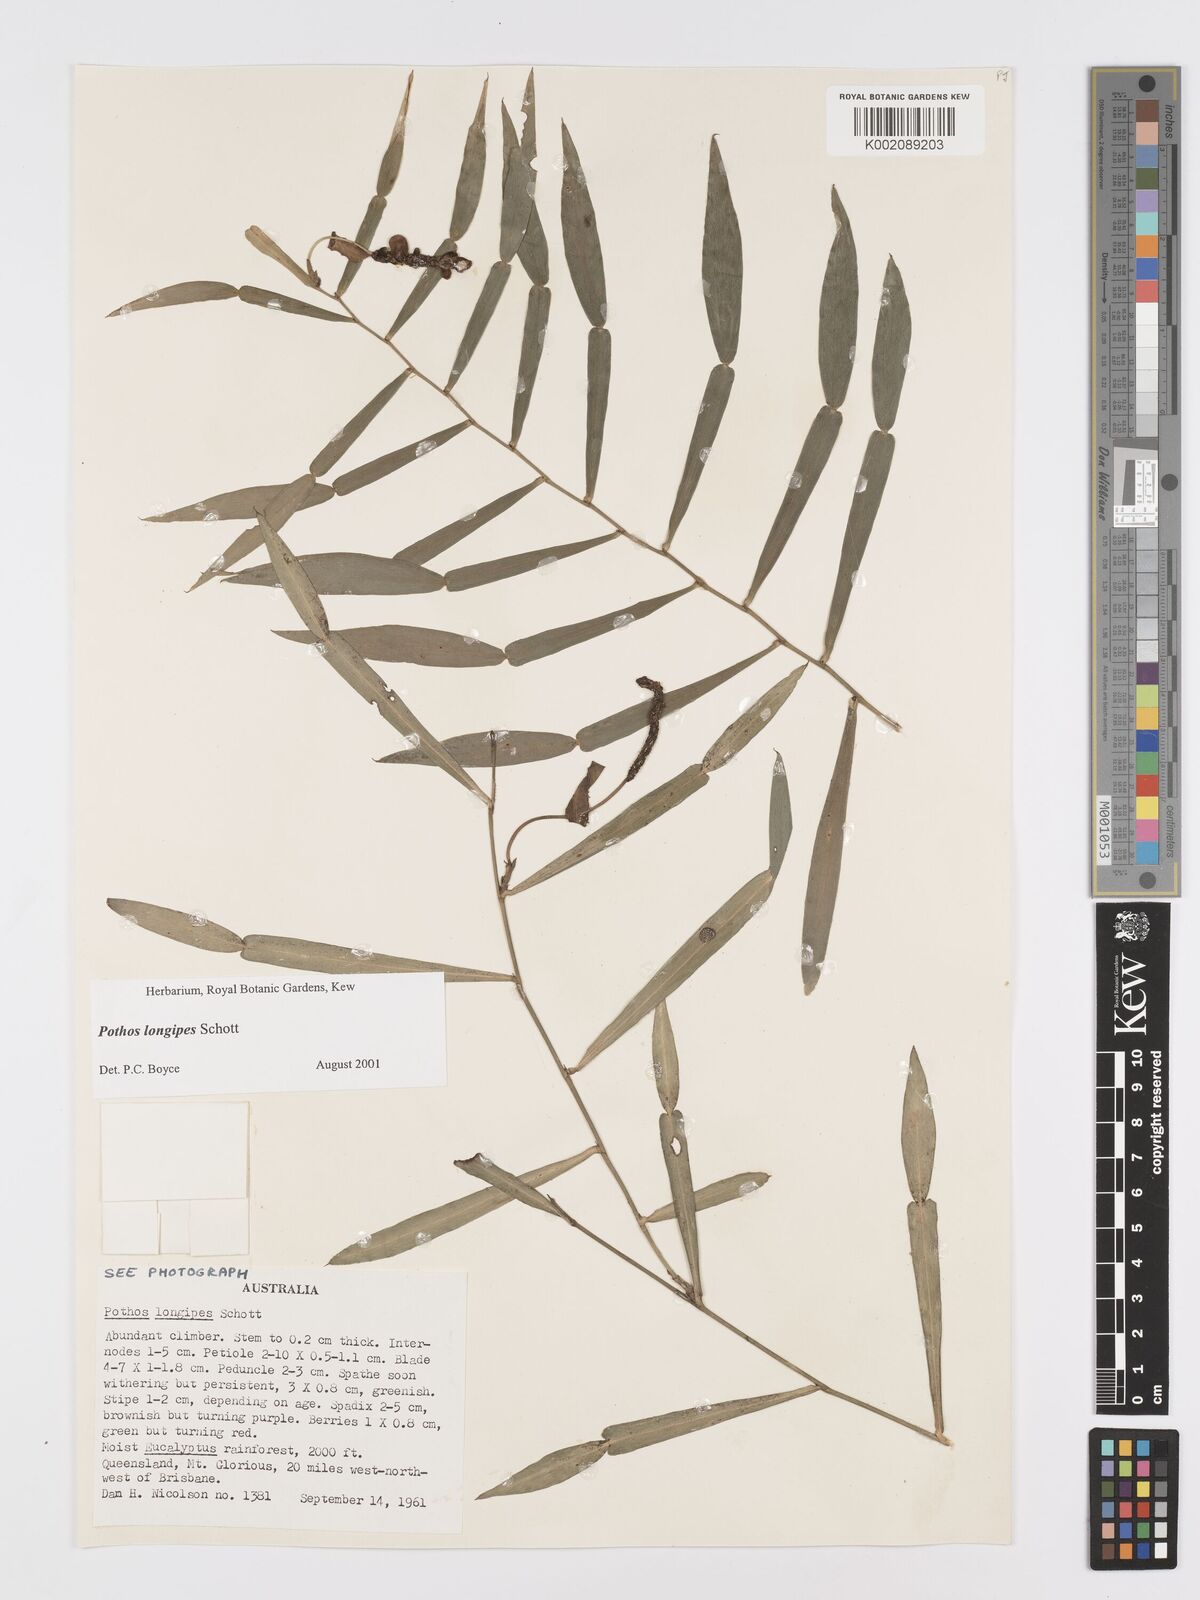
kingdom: Plantae
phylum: Tracheophyta
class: Liliopsida
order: Alismatales
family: Araceae
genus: Pothos
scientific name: Pothos longipes
